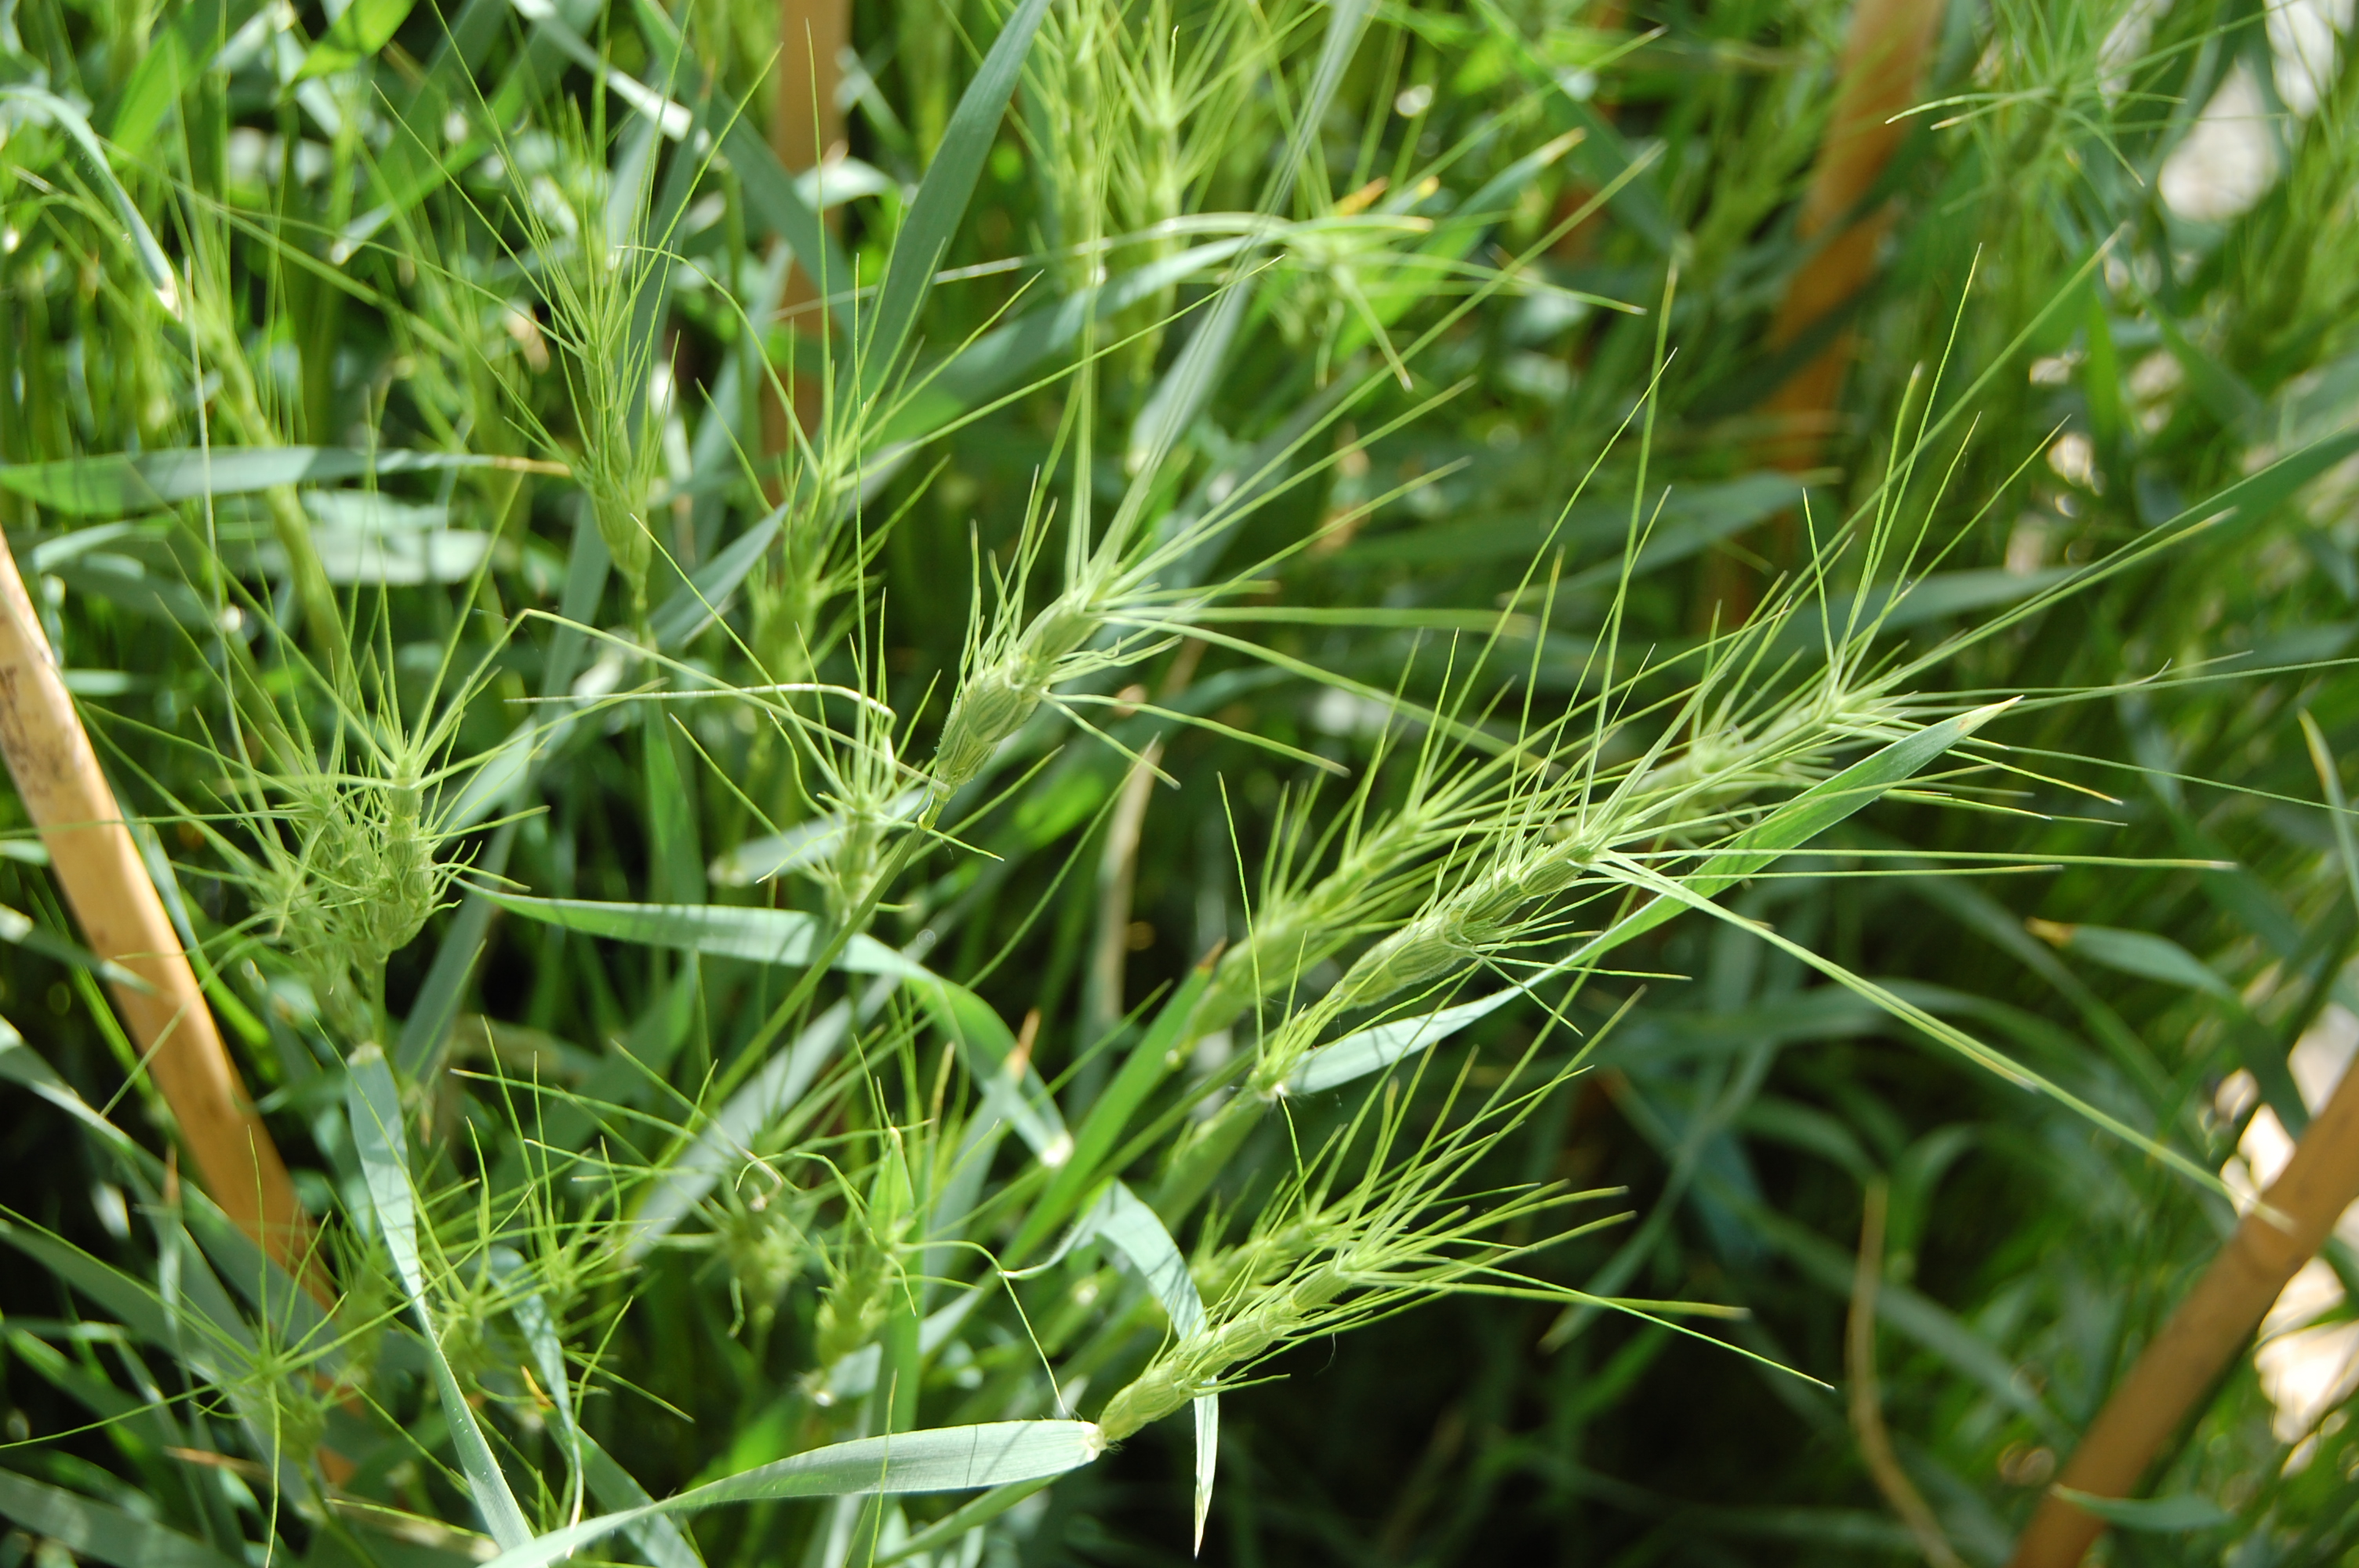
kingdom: Plantae
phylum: Tracheophyta
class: Liliopsida
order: Poales
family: Poaceae
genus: Aegilops
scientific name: Aegilops triuncialis
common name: Barb goat grass
